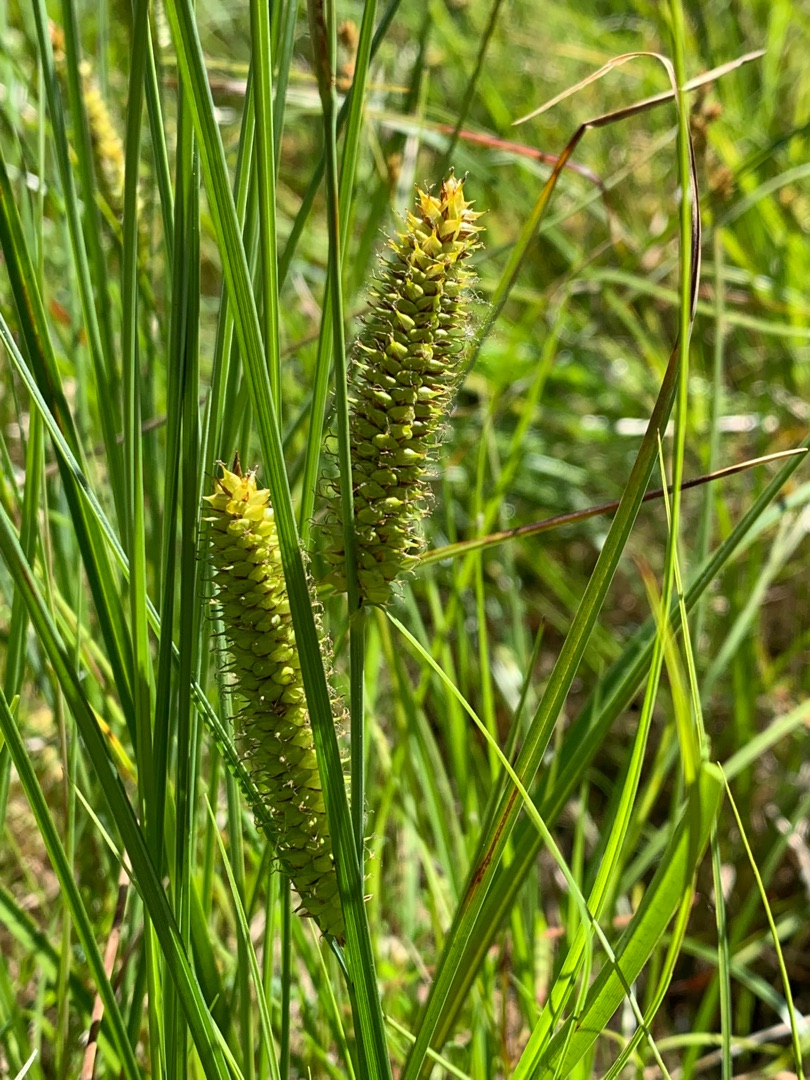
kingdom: Plantae
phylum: Tracheophyta
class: Liliopsida
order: Poales
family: Cyperaceae
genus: Carex
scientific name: Carex rostrata
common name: Næb-star
